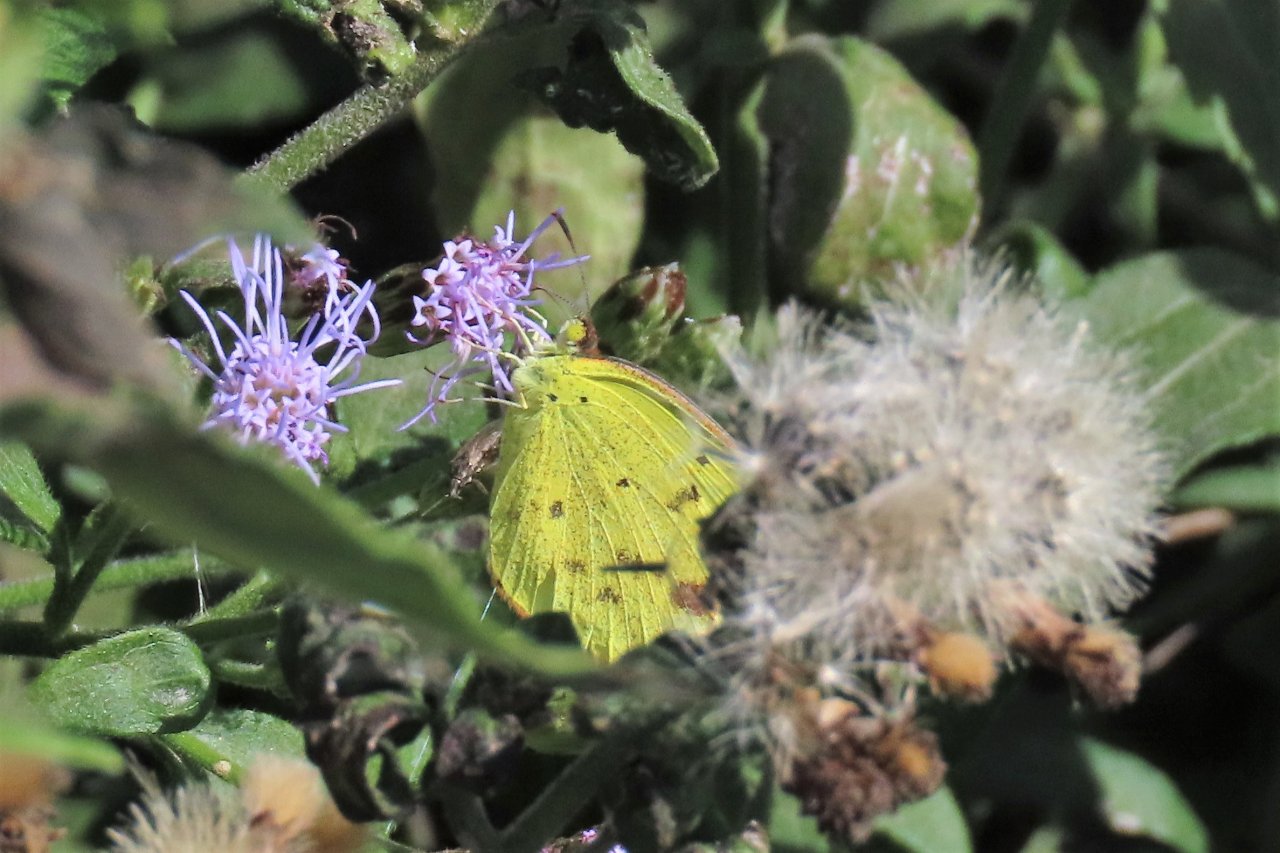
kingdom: Animalia
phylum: Arthropoda
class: Insecta
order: Lepidoptera
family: Pieridae
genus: Pyrisitia
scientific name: Pyrisitia lisa
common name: Little Yellow
